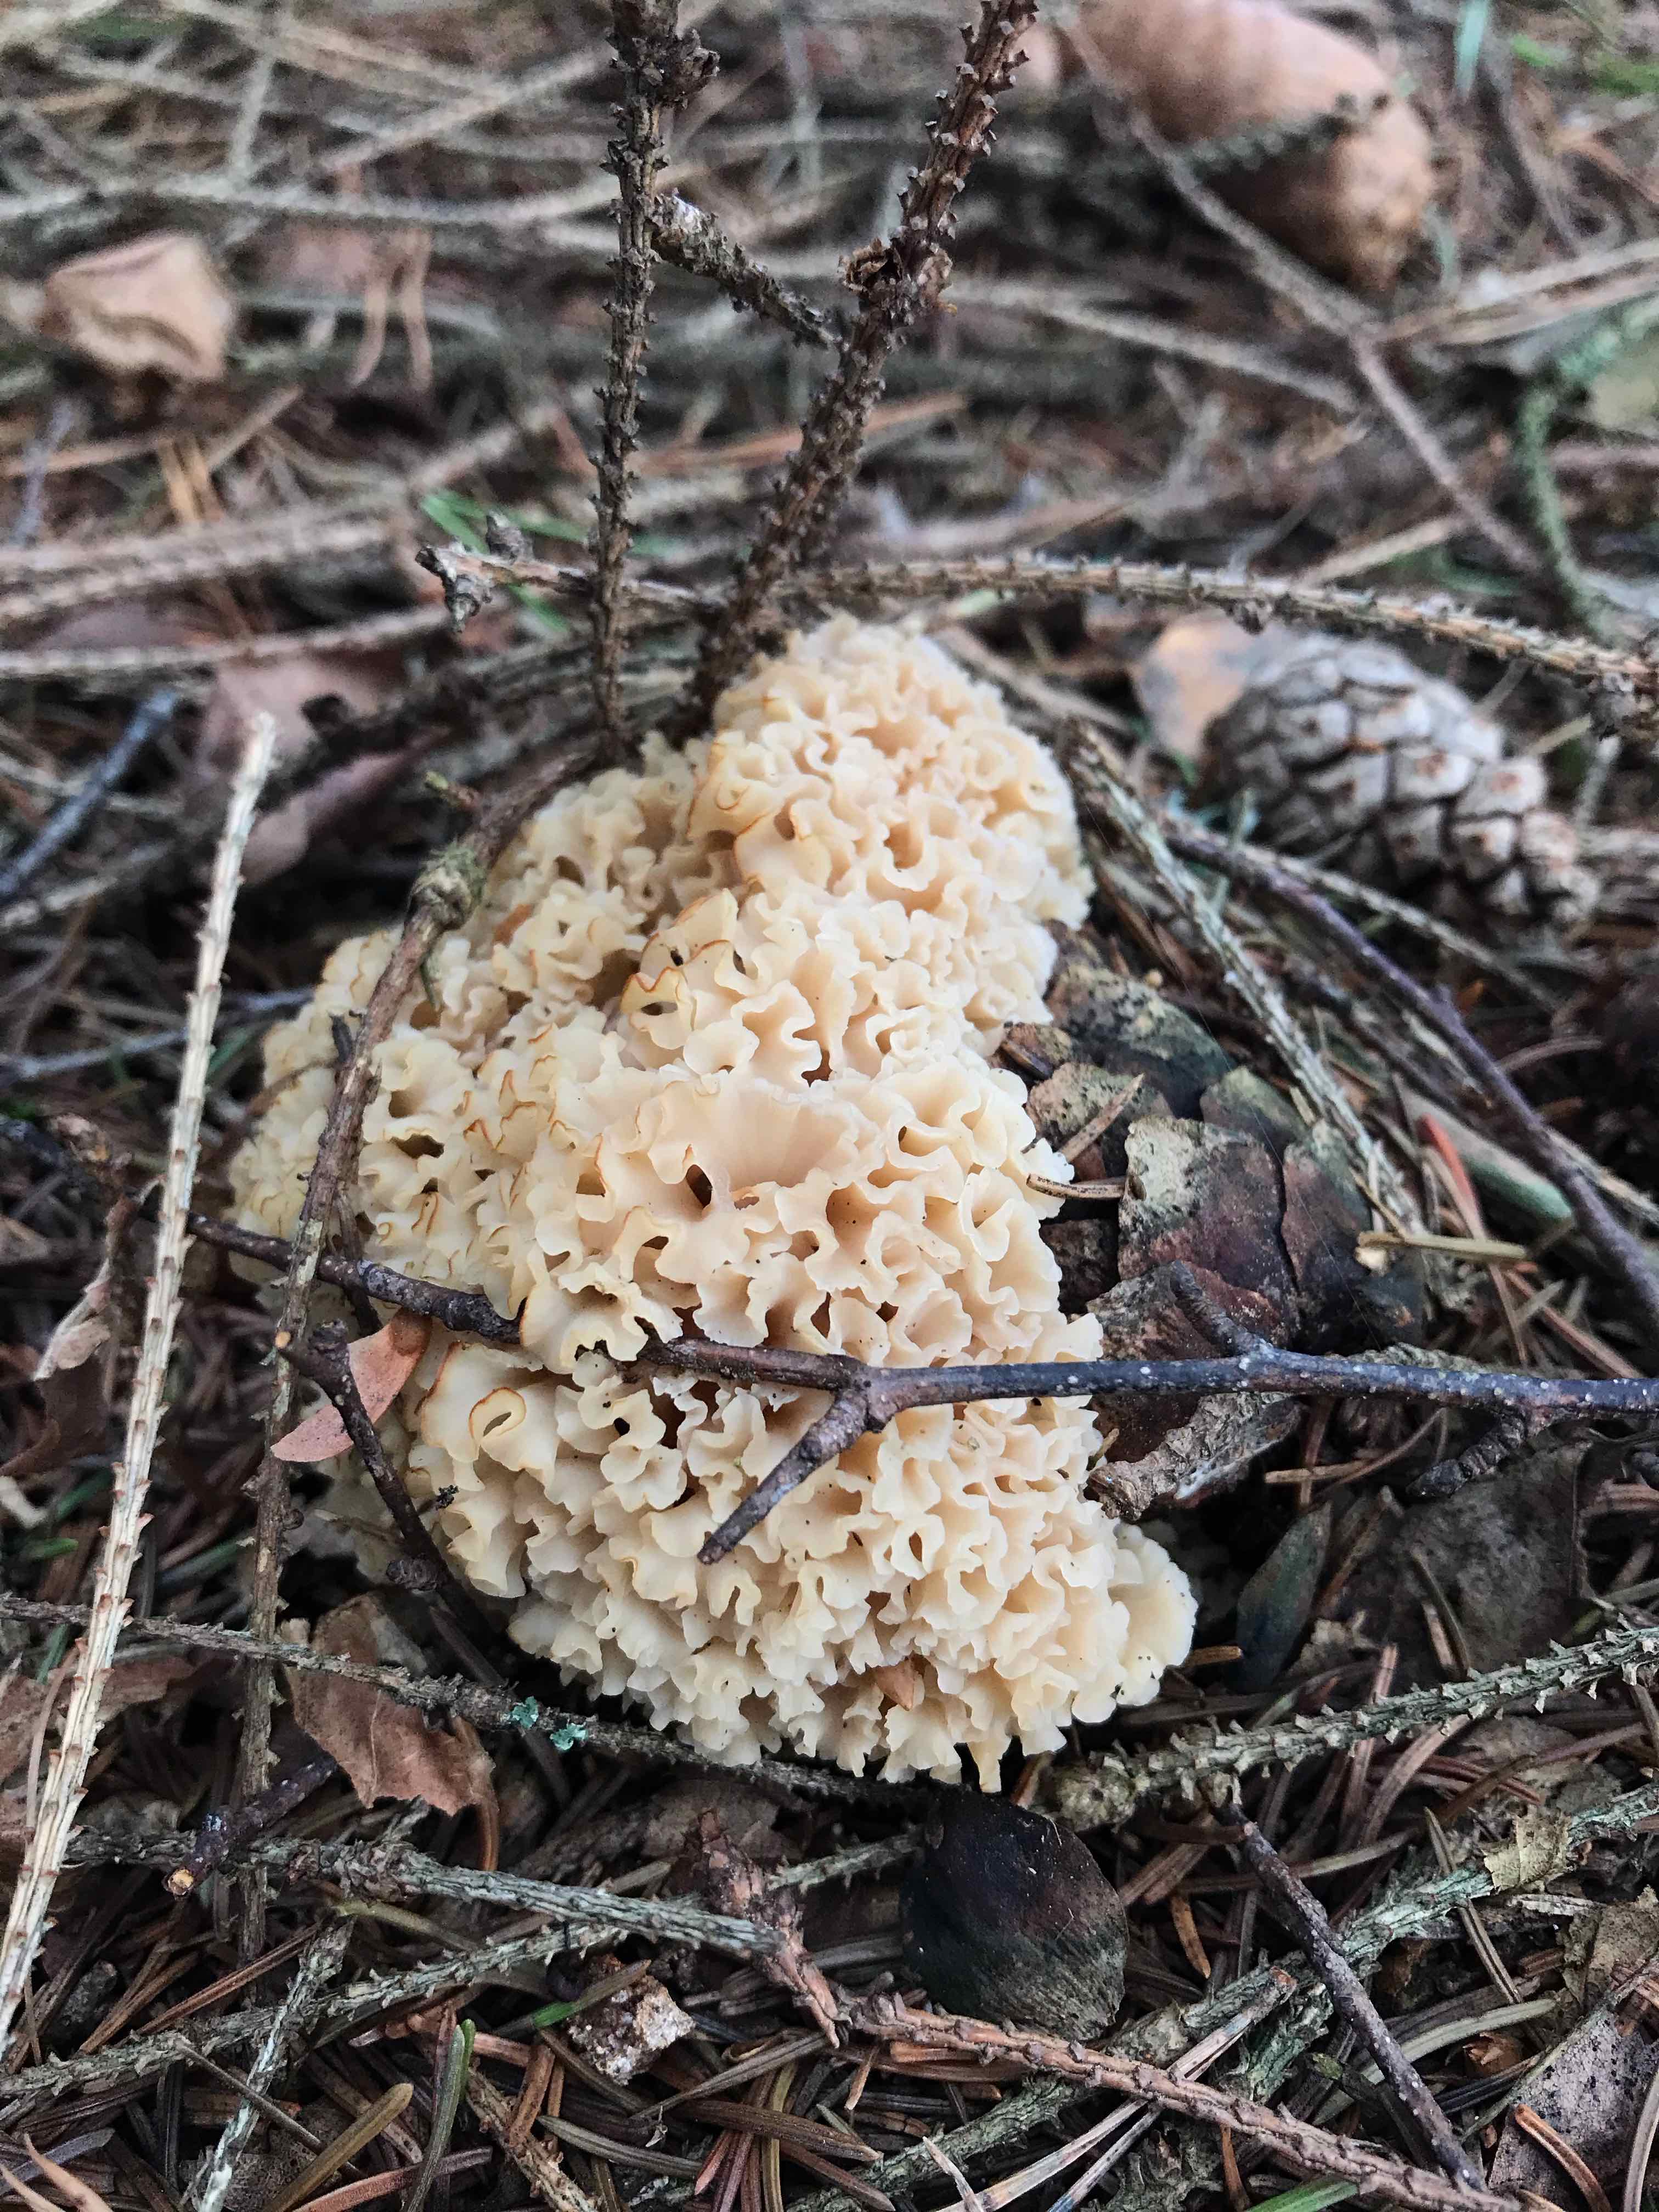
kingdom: Fungi
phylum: Basidiomycota
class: Agaricomycetes
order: Polyporales
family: Sparassidaceae
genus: Sparassis
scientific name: Sparassis crispa
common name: kruset blomkålssvamp
